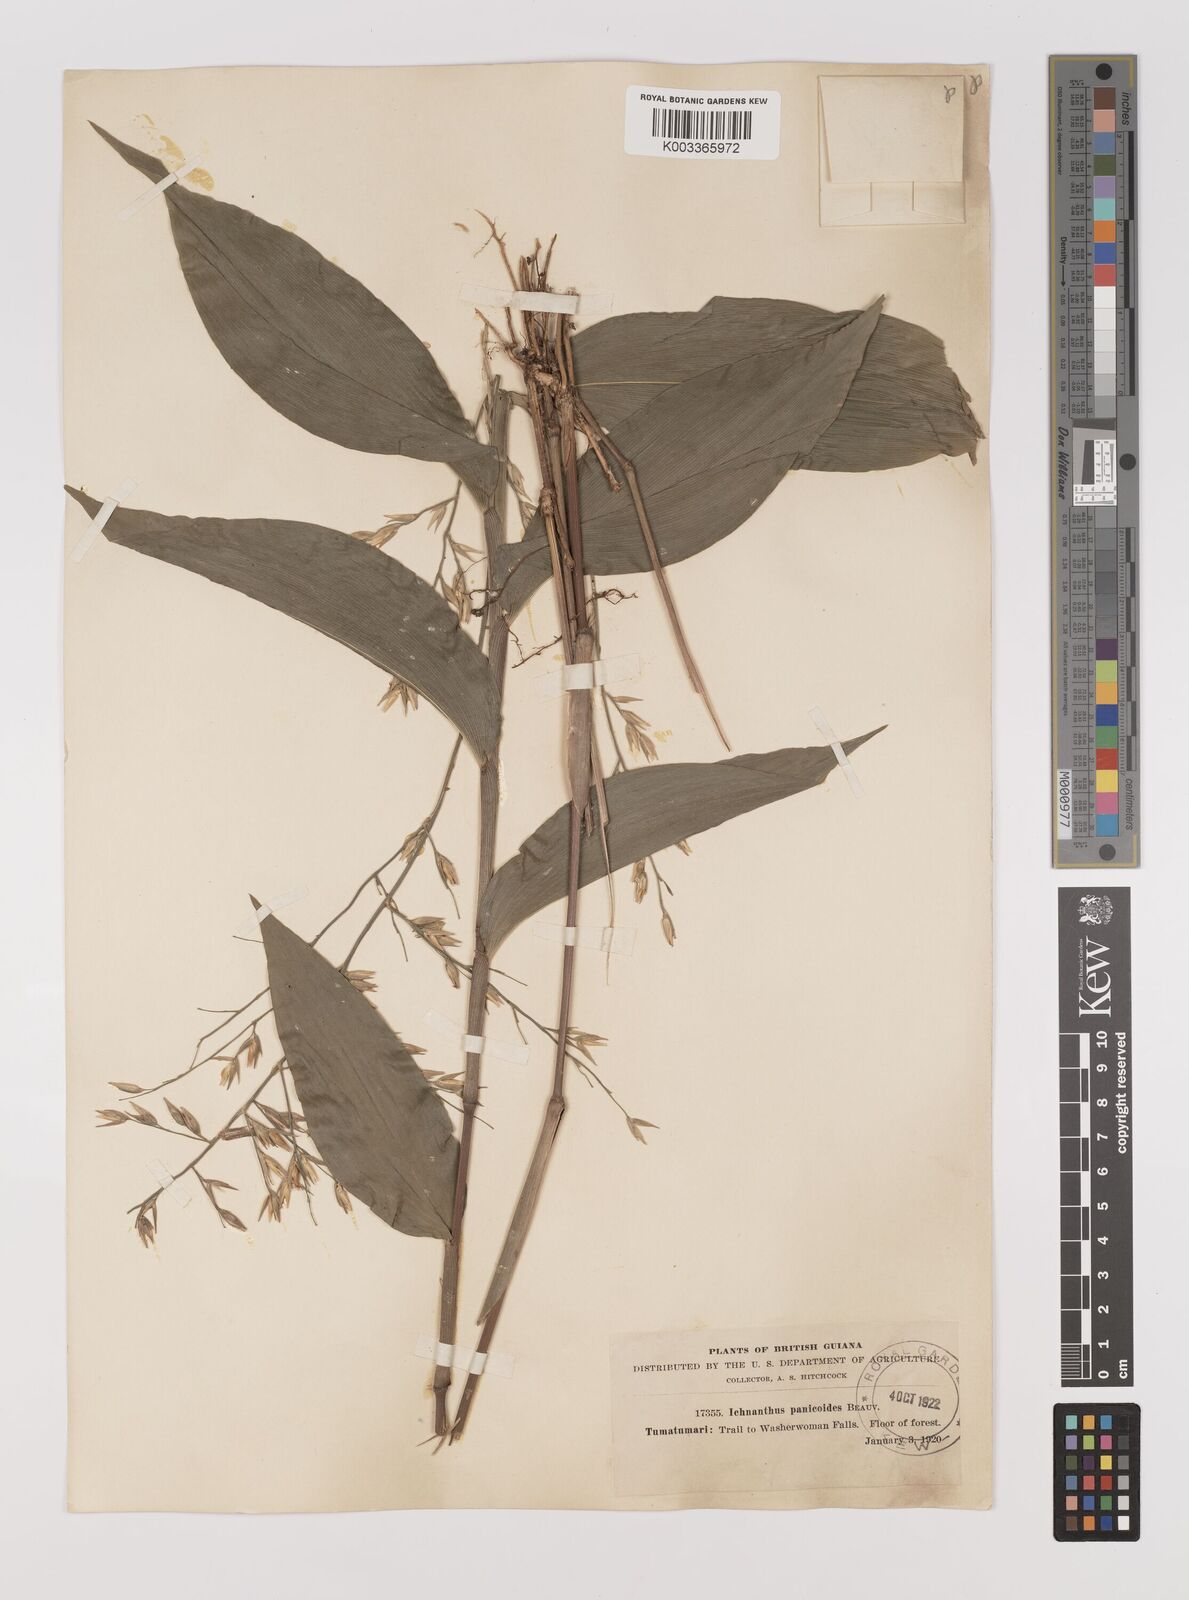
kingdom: Plantae
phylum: Tracheophyta
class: Liliopsida
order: Poales
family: Poaceae
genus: Ichnanthus
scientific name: Ichnanthus panicoides
